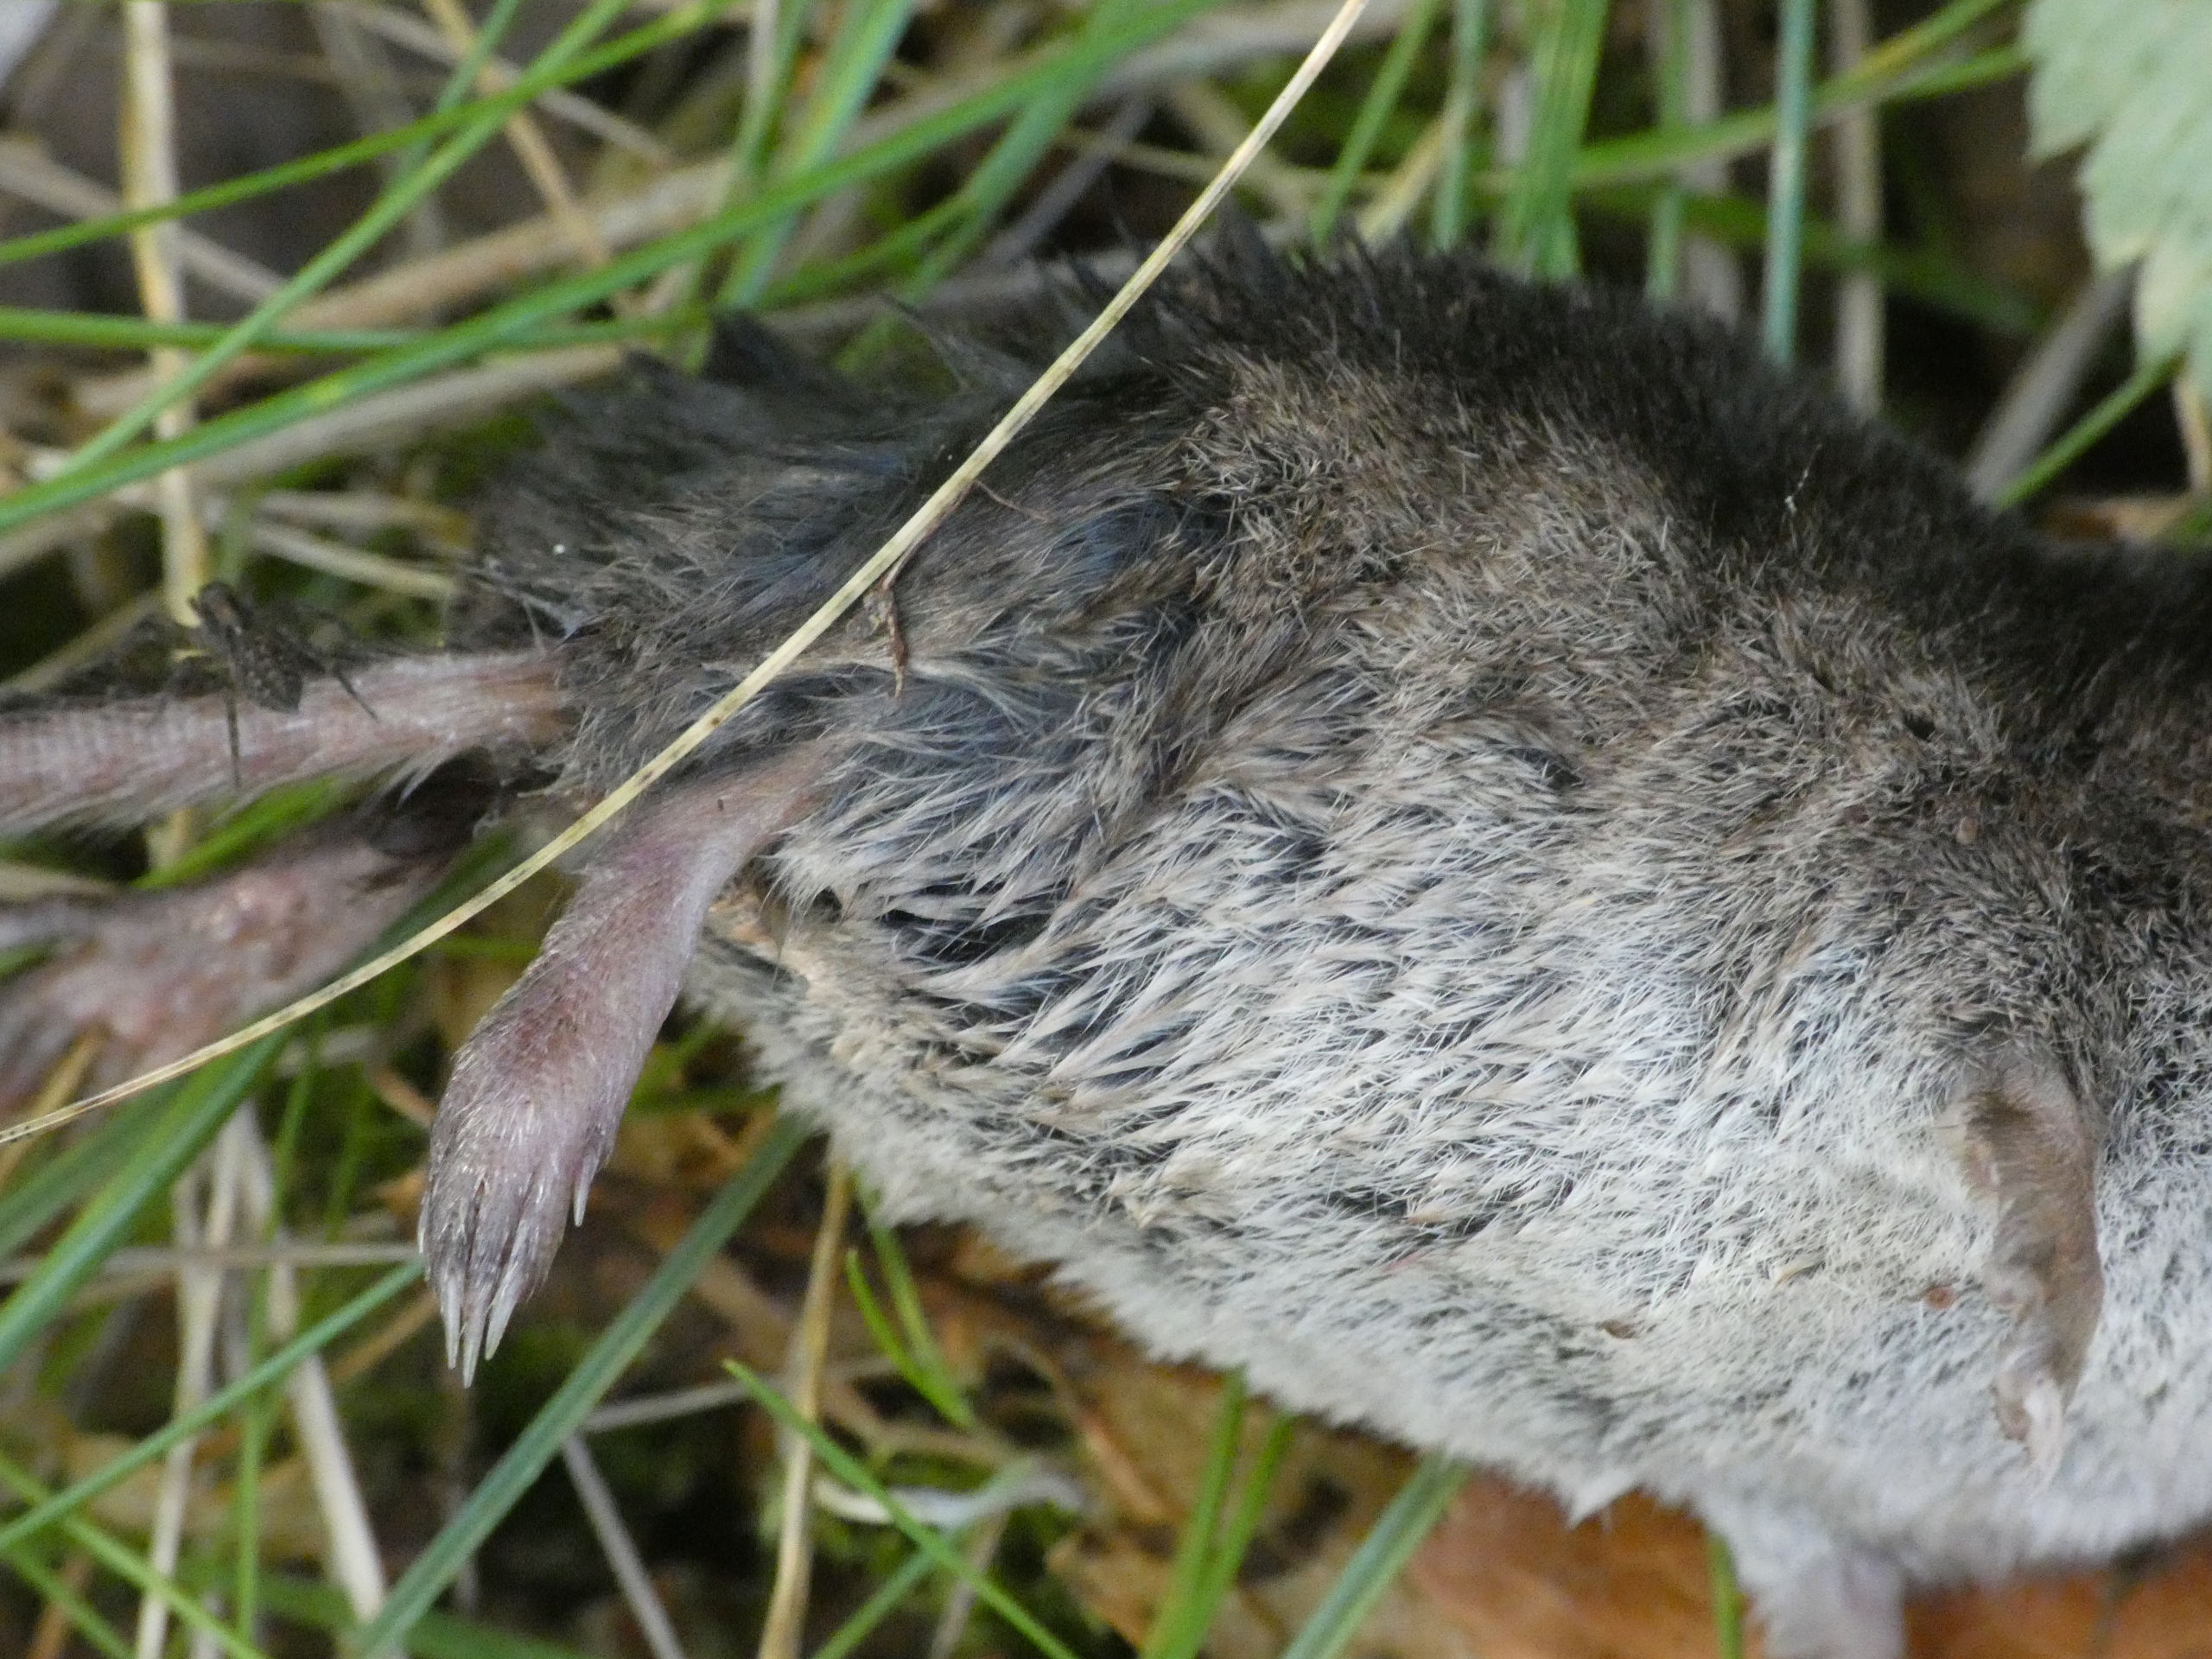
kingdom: Animalia
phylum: Chordata
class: Mammalia
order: Soricomorpha
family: Soricidae
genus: Sorex
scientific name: Sorex araneus
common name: Almindelig spidsmus
